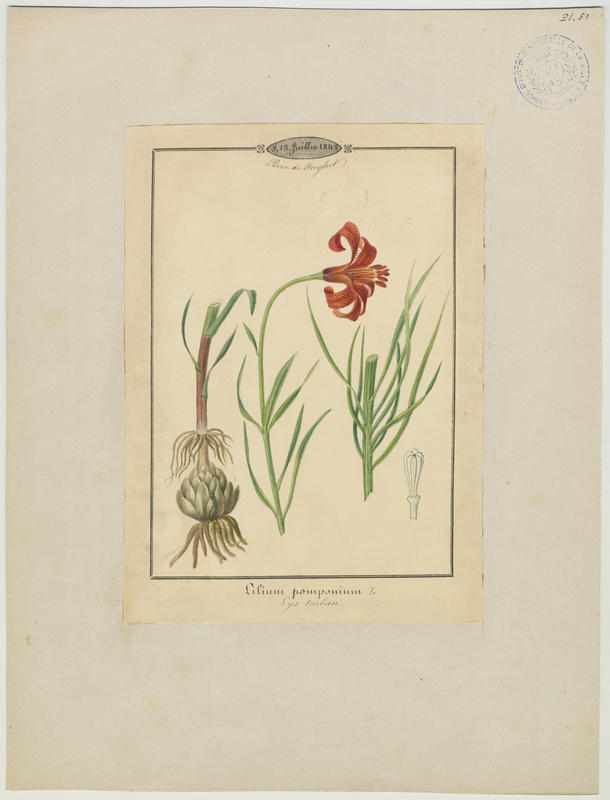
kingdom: Plantae
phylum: Tracheophyta
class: Liliopsida
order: Liliales
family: Liliaceae
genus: Lilium
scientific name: Lilium pomponium
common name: Minor turk's-cap lily
